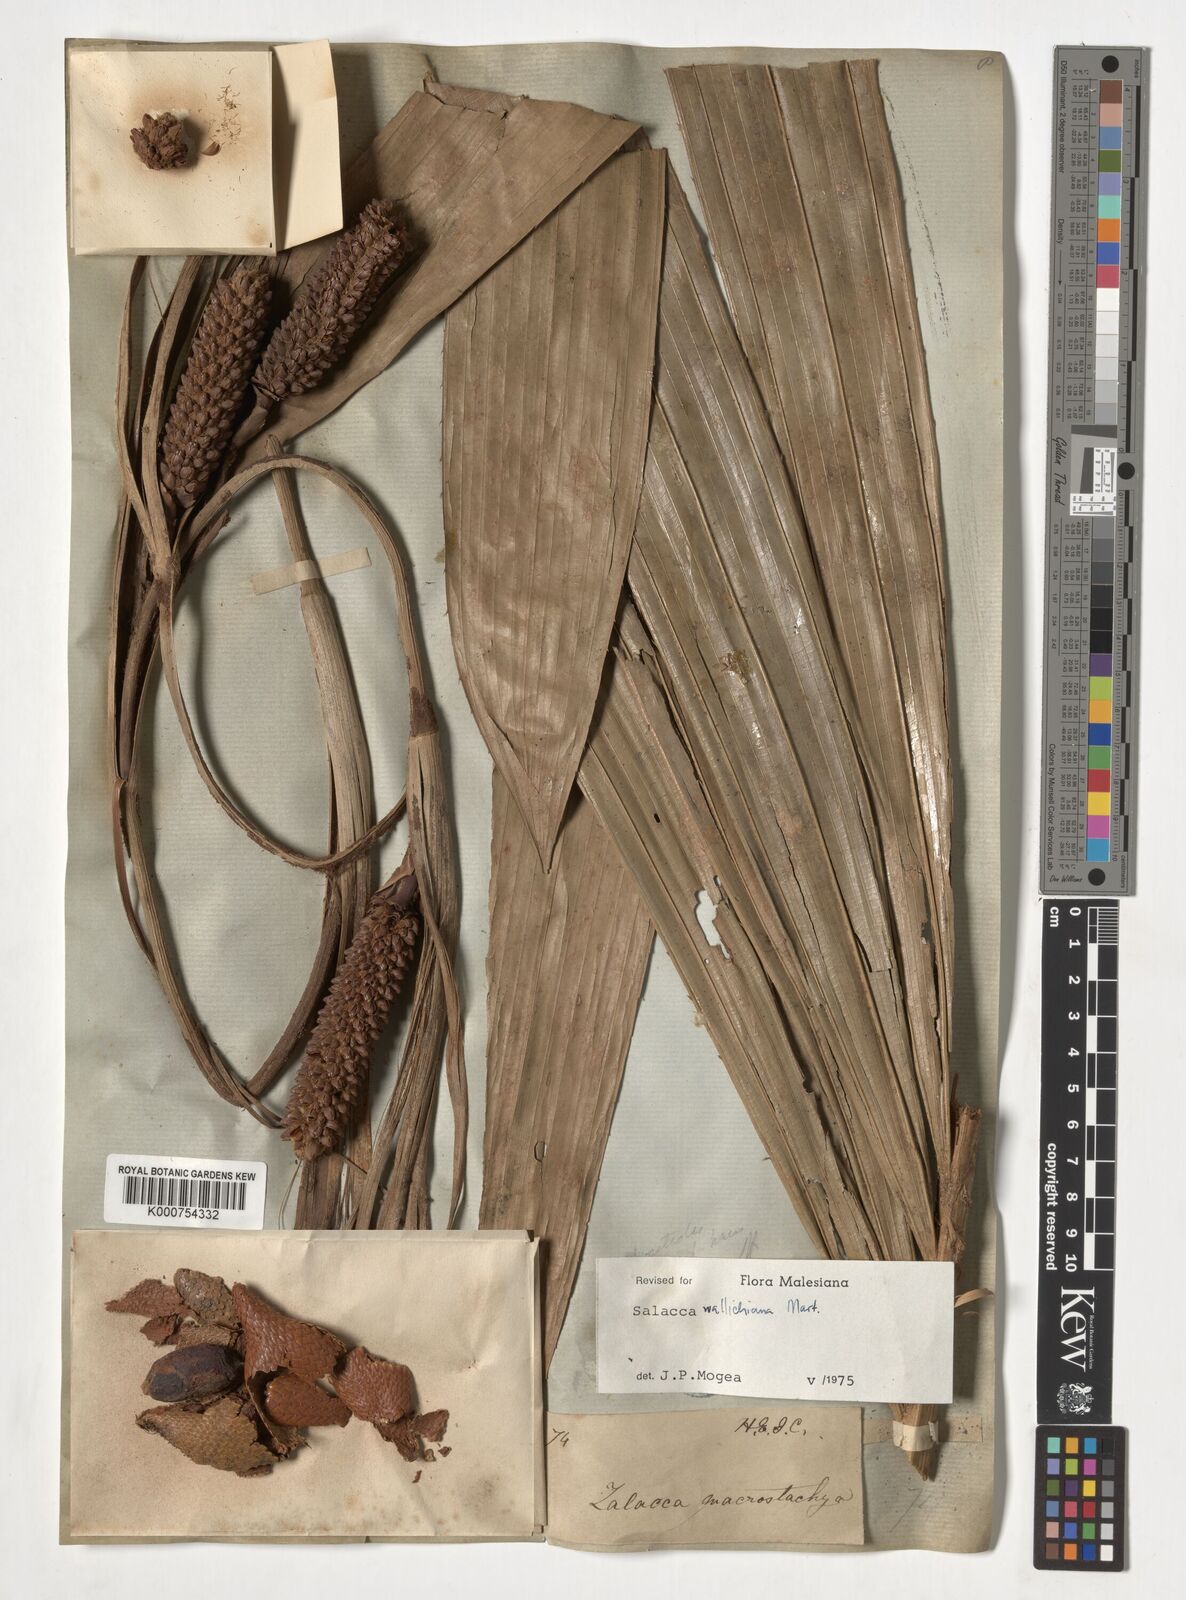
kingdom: Plantae
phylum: Tracheophyta
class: Liliopsida
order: Arecales
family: Arecaceae
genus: Salacca
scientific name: Salacca wallichiana
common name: Rakum palm
